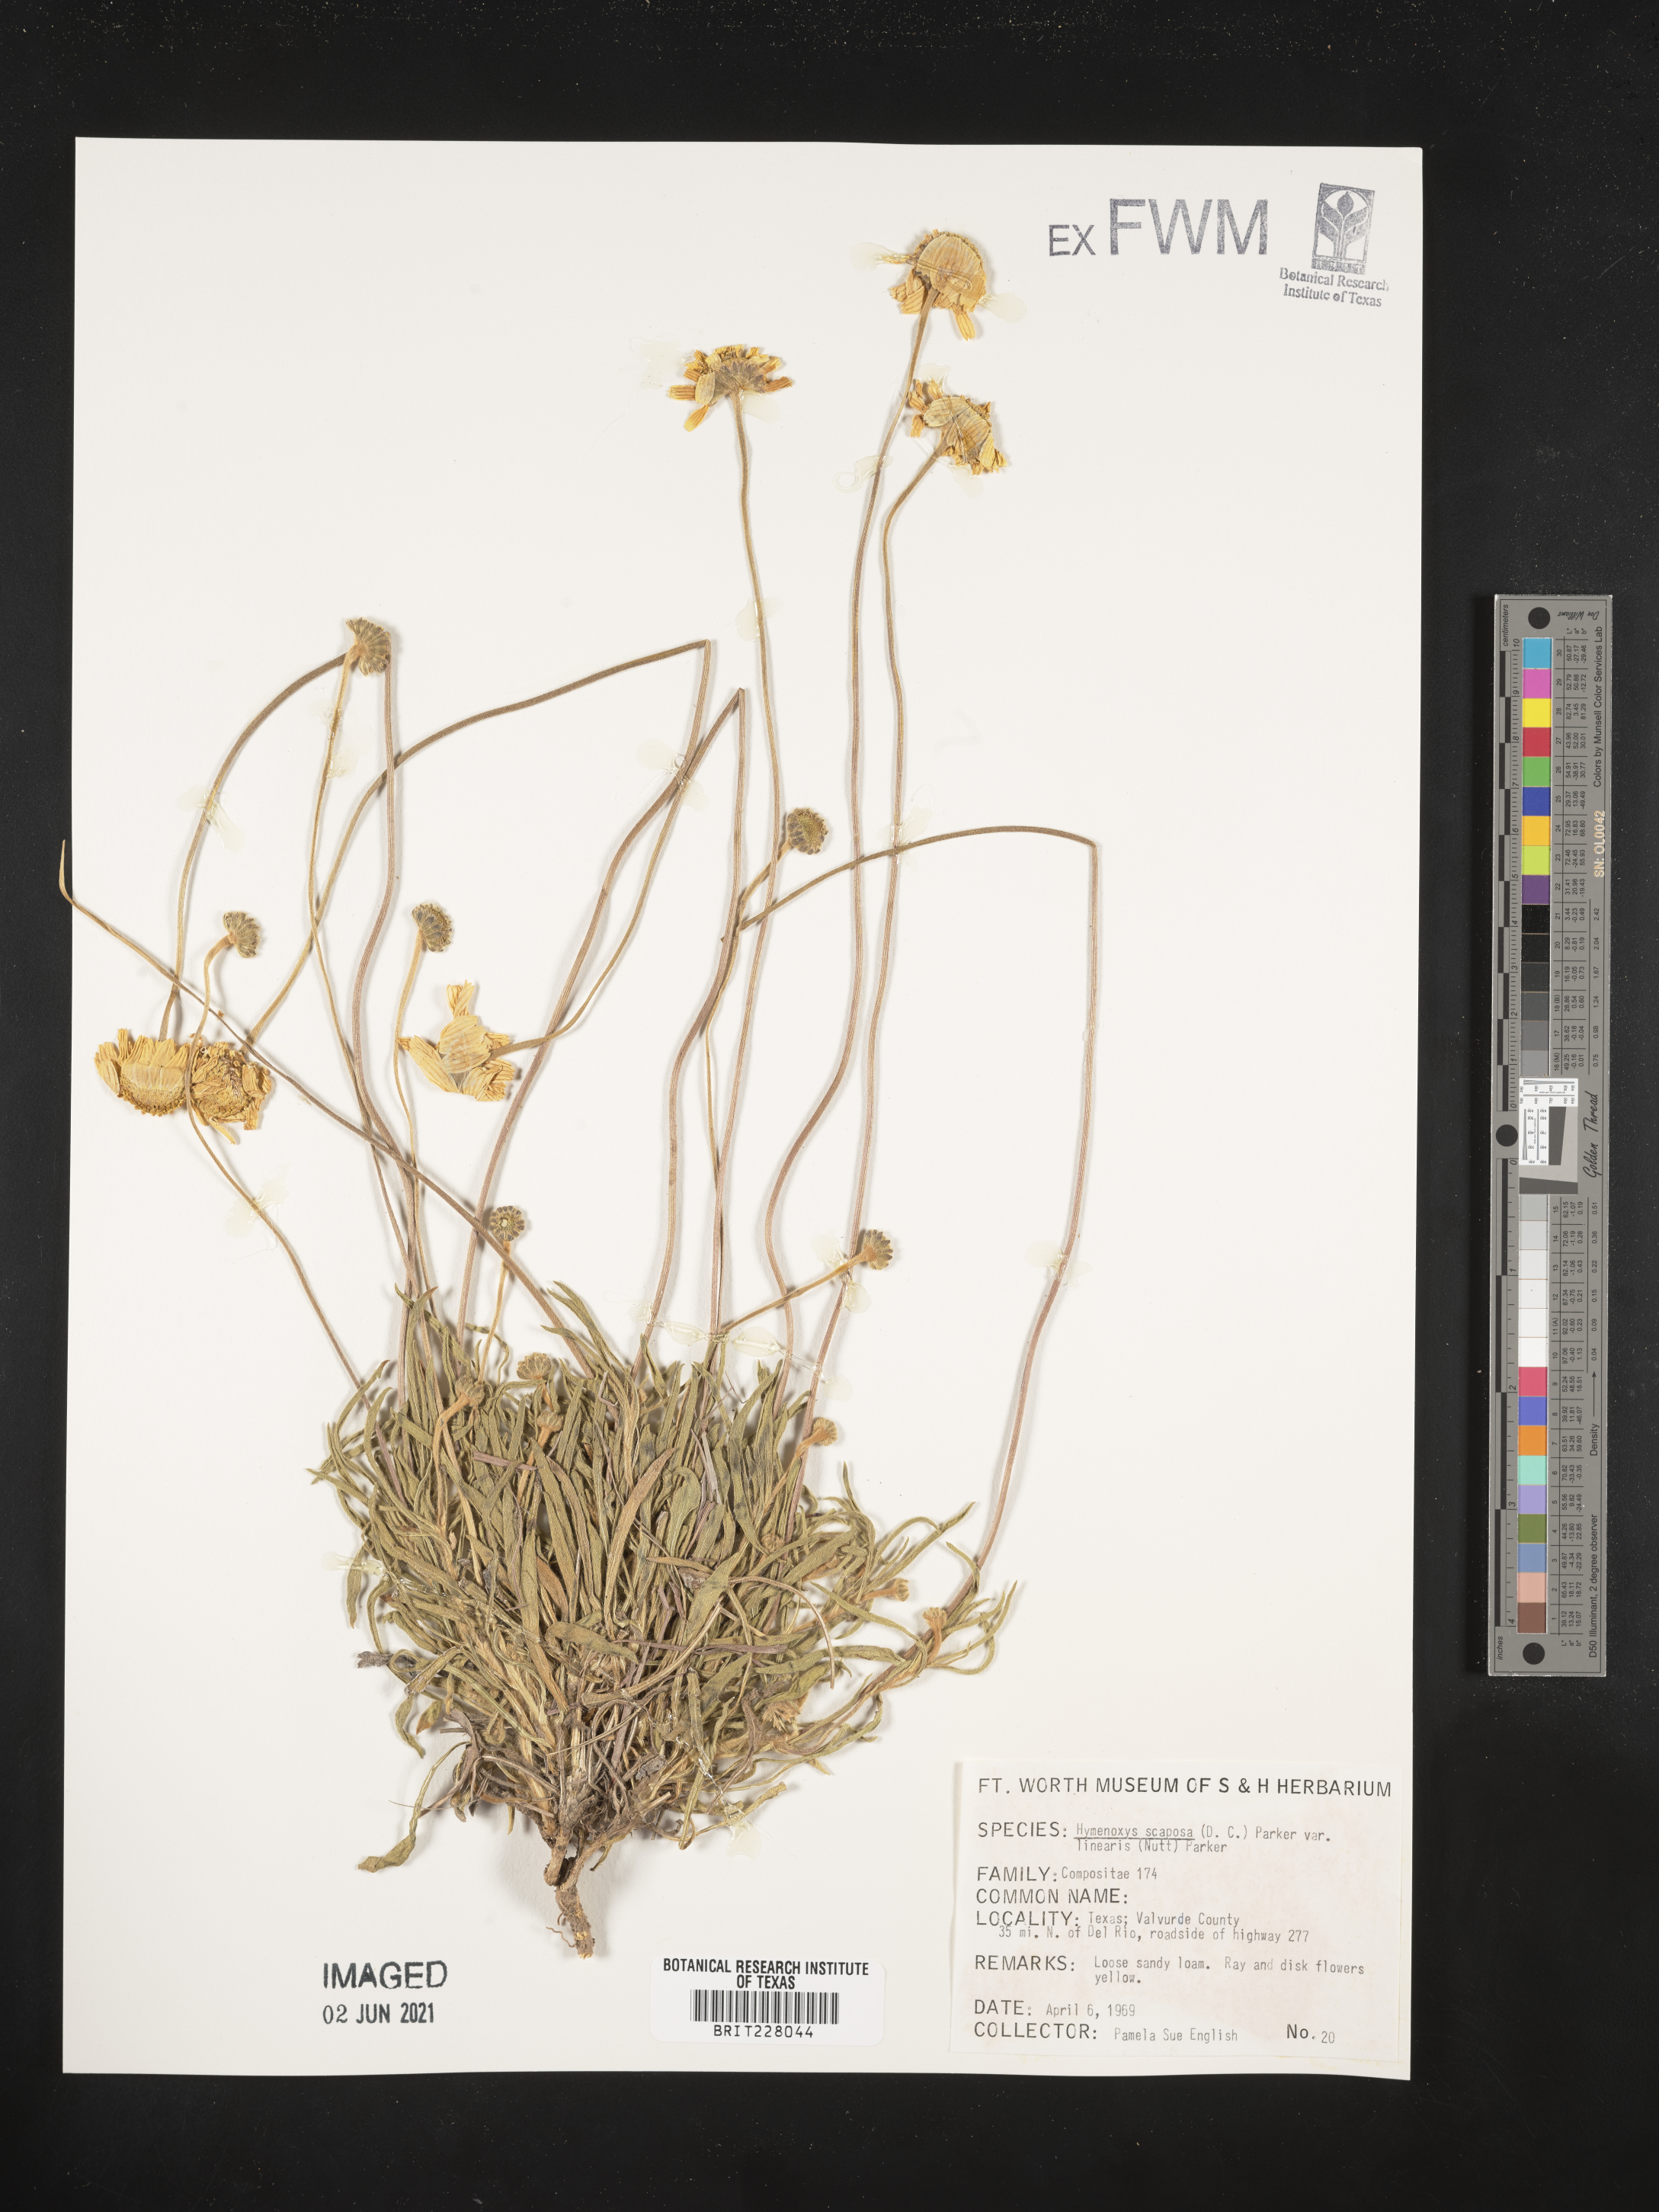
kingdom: Plantae
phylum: Tracheophyta
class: Magnoliopsida
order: Asterales
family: Asteraceae
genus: Tetraneuris
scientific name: Tetraneuris scaposa
